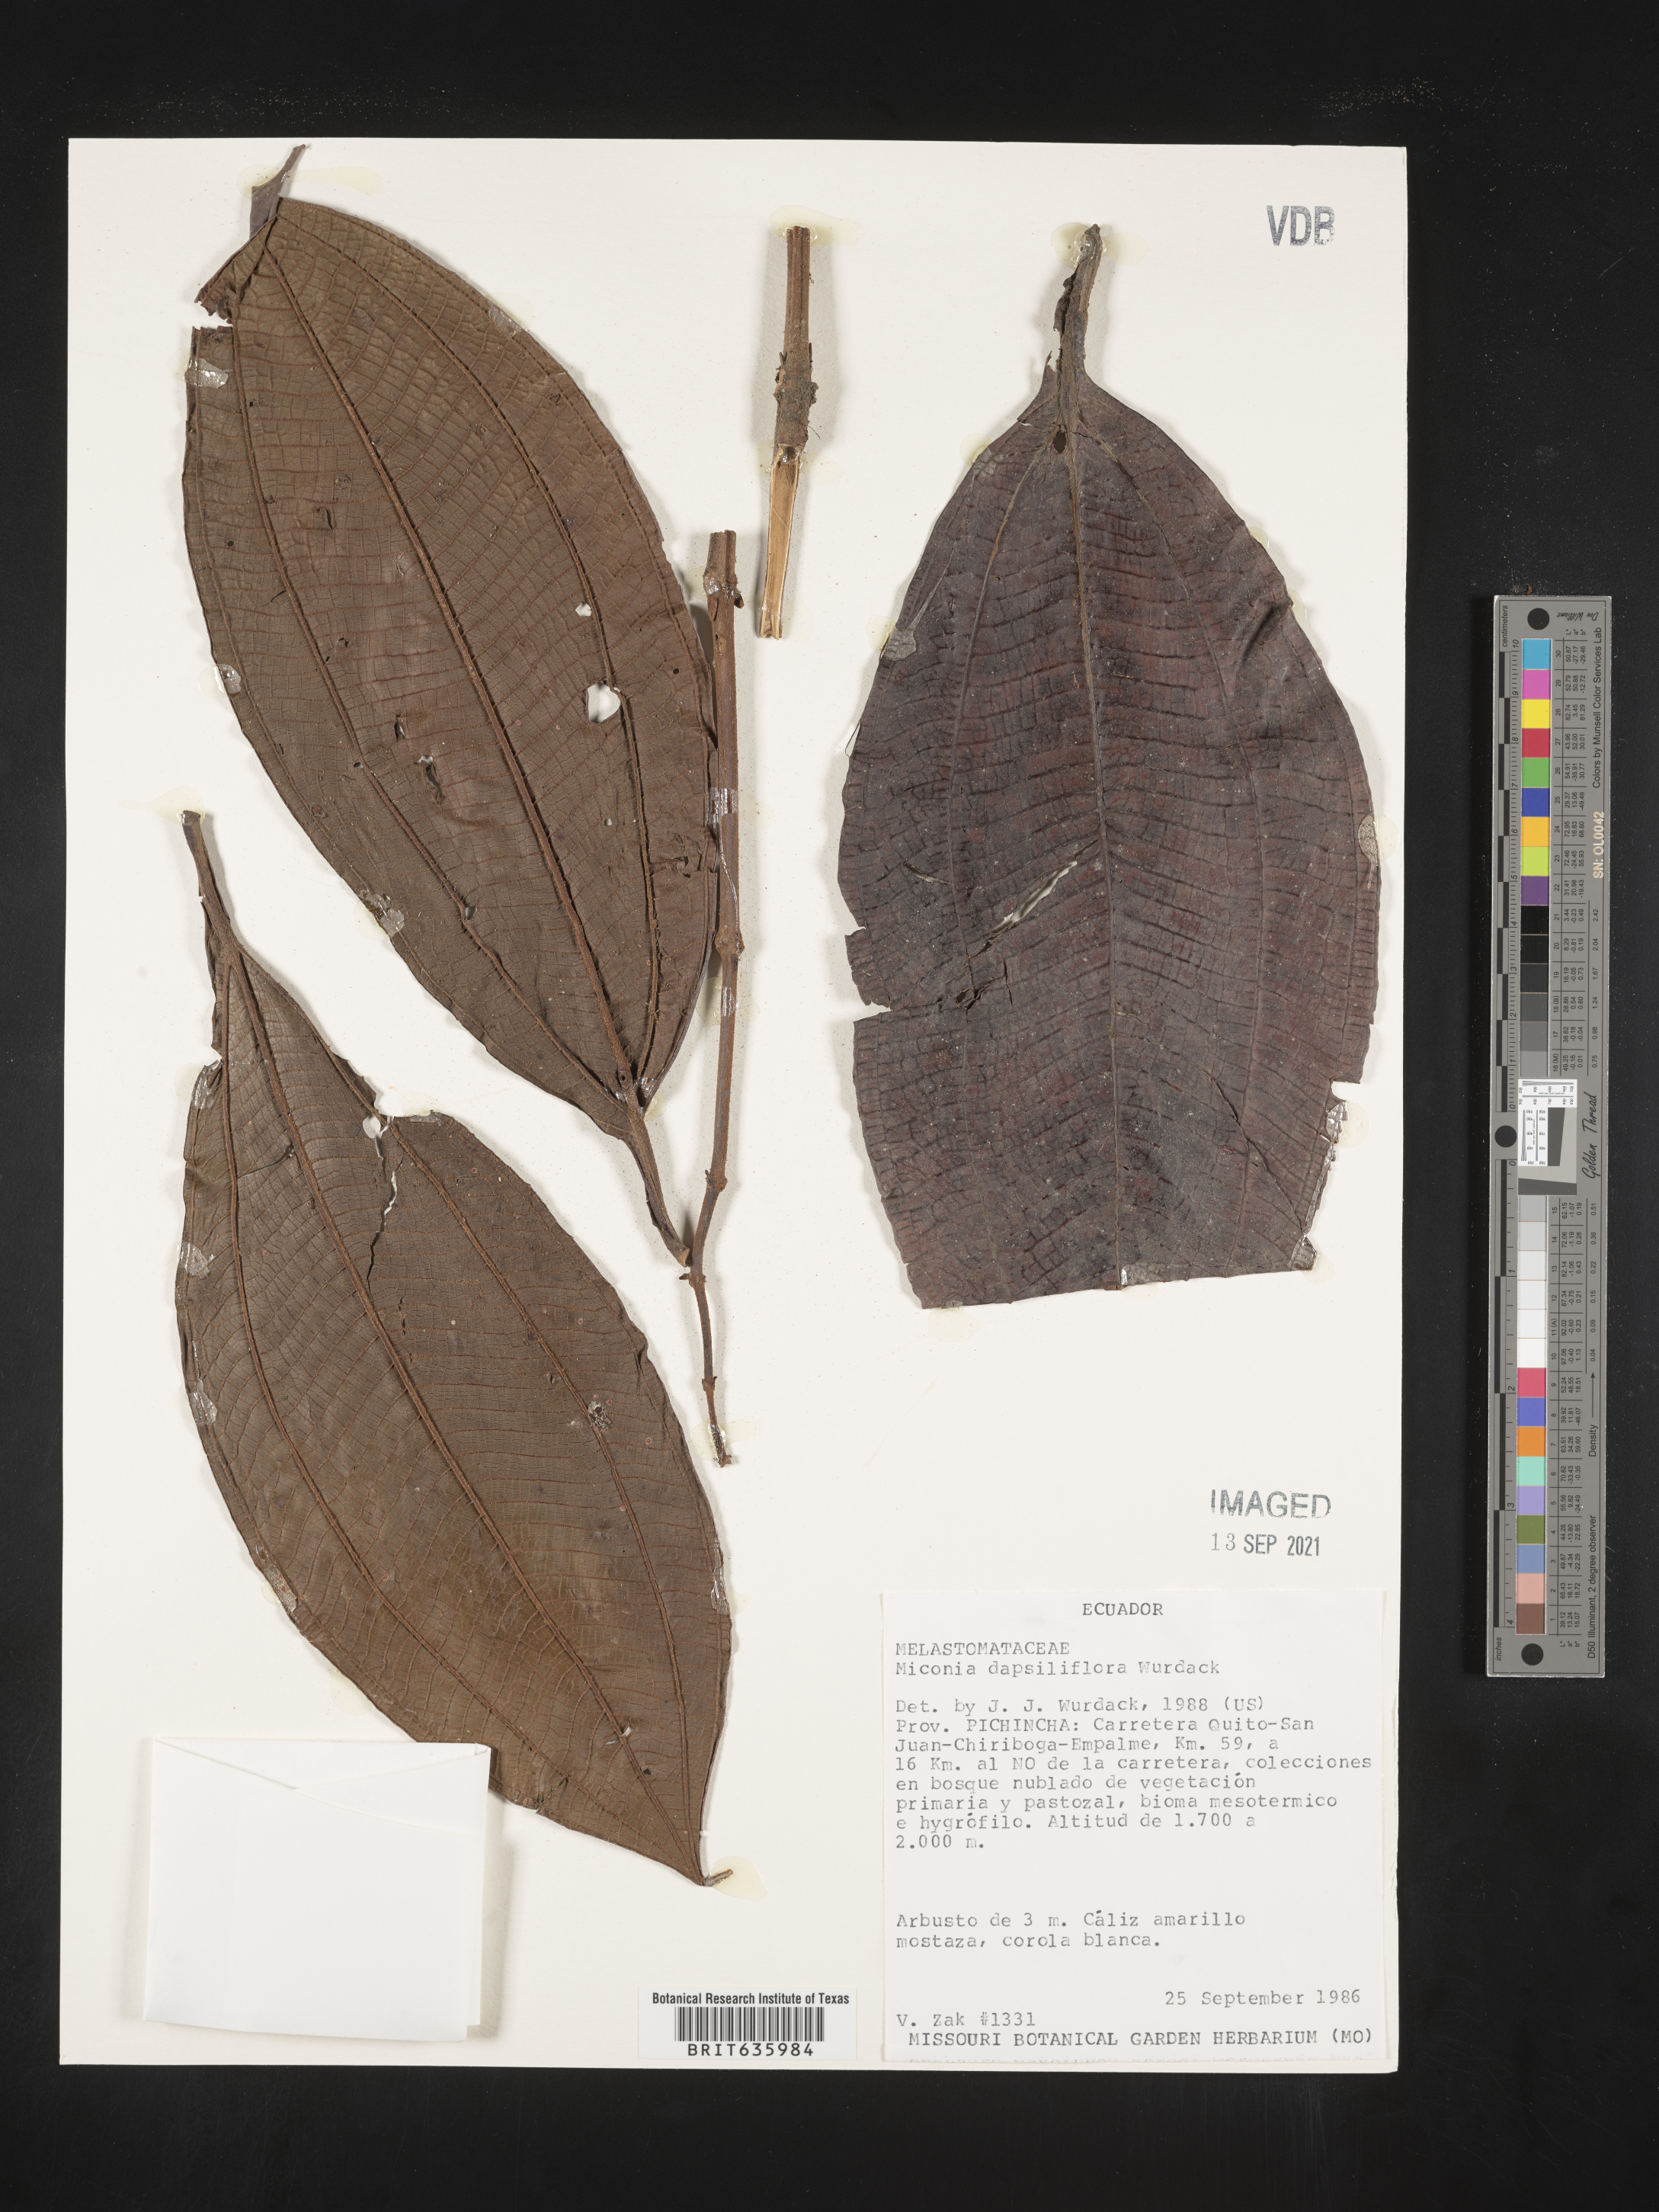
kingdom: Plantae
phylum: Tracheophyta
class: Magnoliopsida
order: Myrtales
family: Melastomataceae
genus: Miconia
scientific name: Miconia
